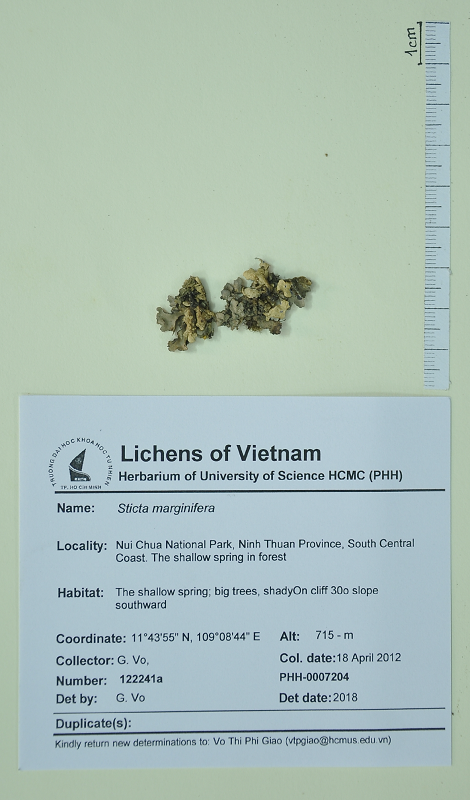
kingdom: Fungi
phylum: Ascomycota
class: Lecanoromycetes
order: Peltigerales
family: Lobariaceae
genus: Sticta
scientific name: Sticta marginifera
